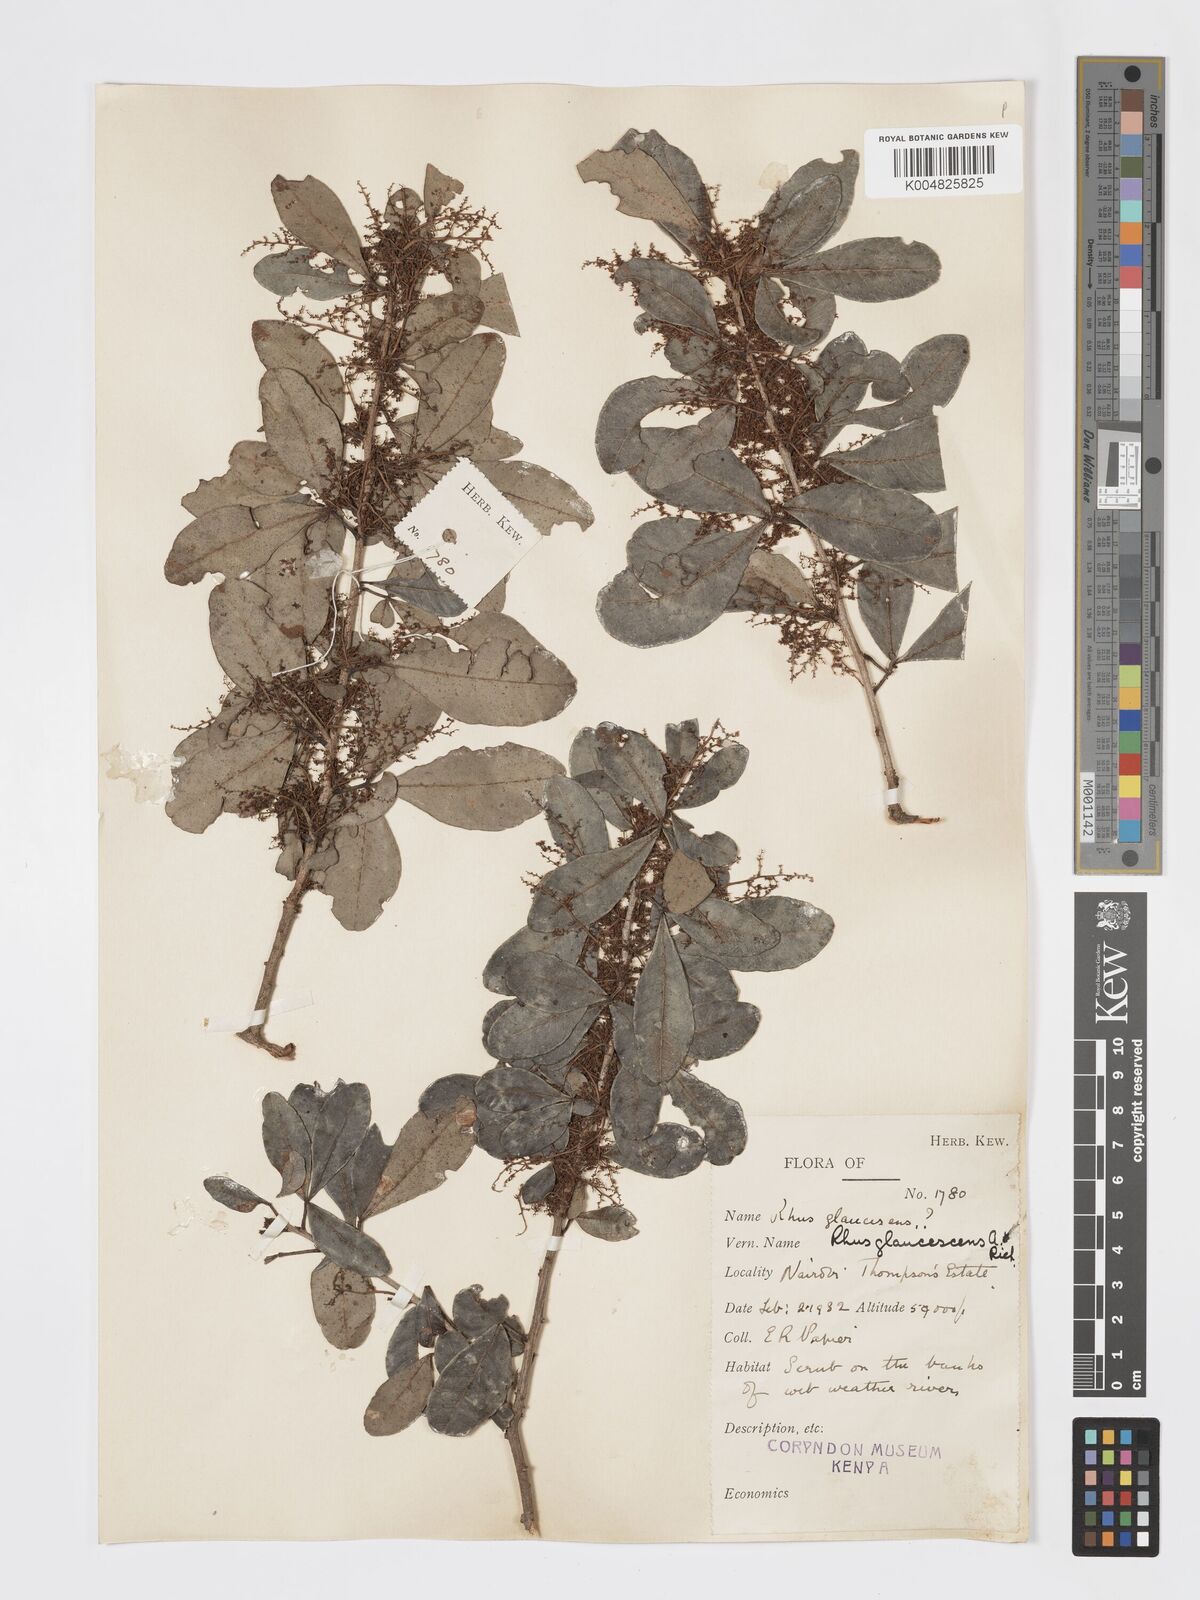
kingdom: Plantae
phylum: Tracheophyta
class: Magnoliopsida
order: Sapindales
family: Anacardiaceae
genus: Searsia
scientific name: Searsia natalensis
